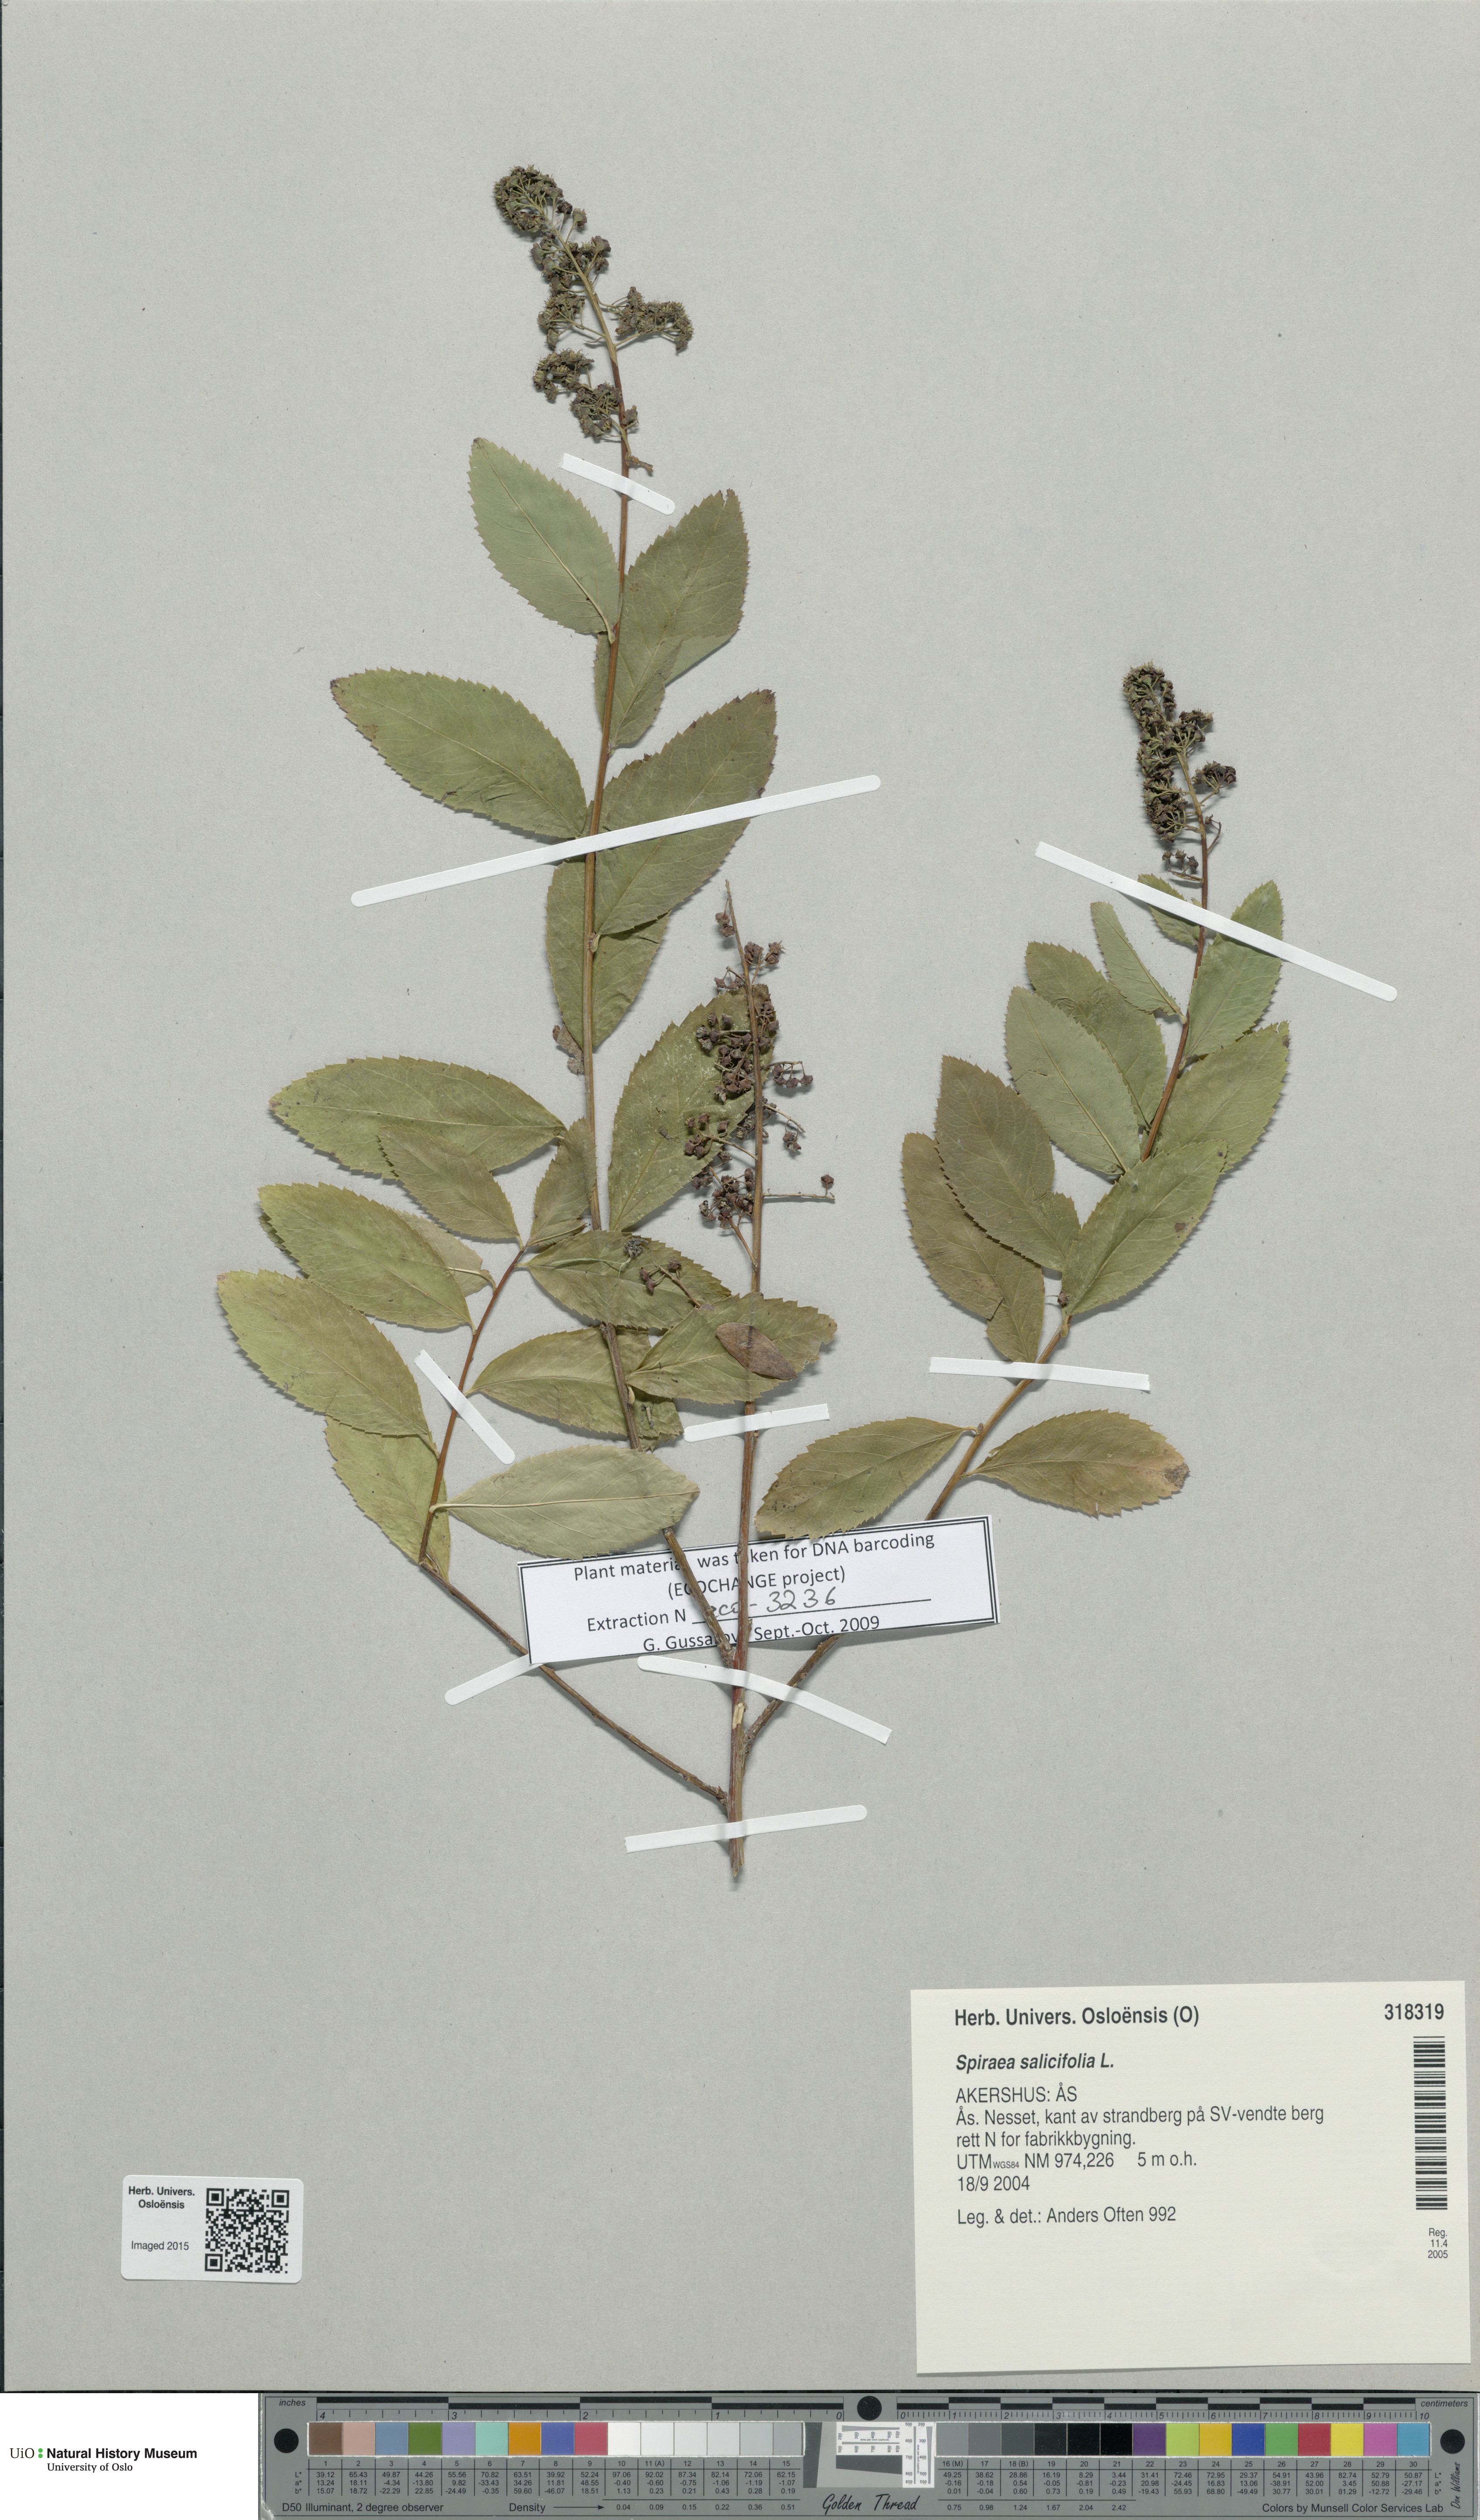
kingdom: Plantae
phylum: Tracheophyta
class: Magnoliopsida
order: Rosales
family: Rosaceae
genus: Spiraea
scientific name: Spiraea salicifolia
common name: Bridewort
